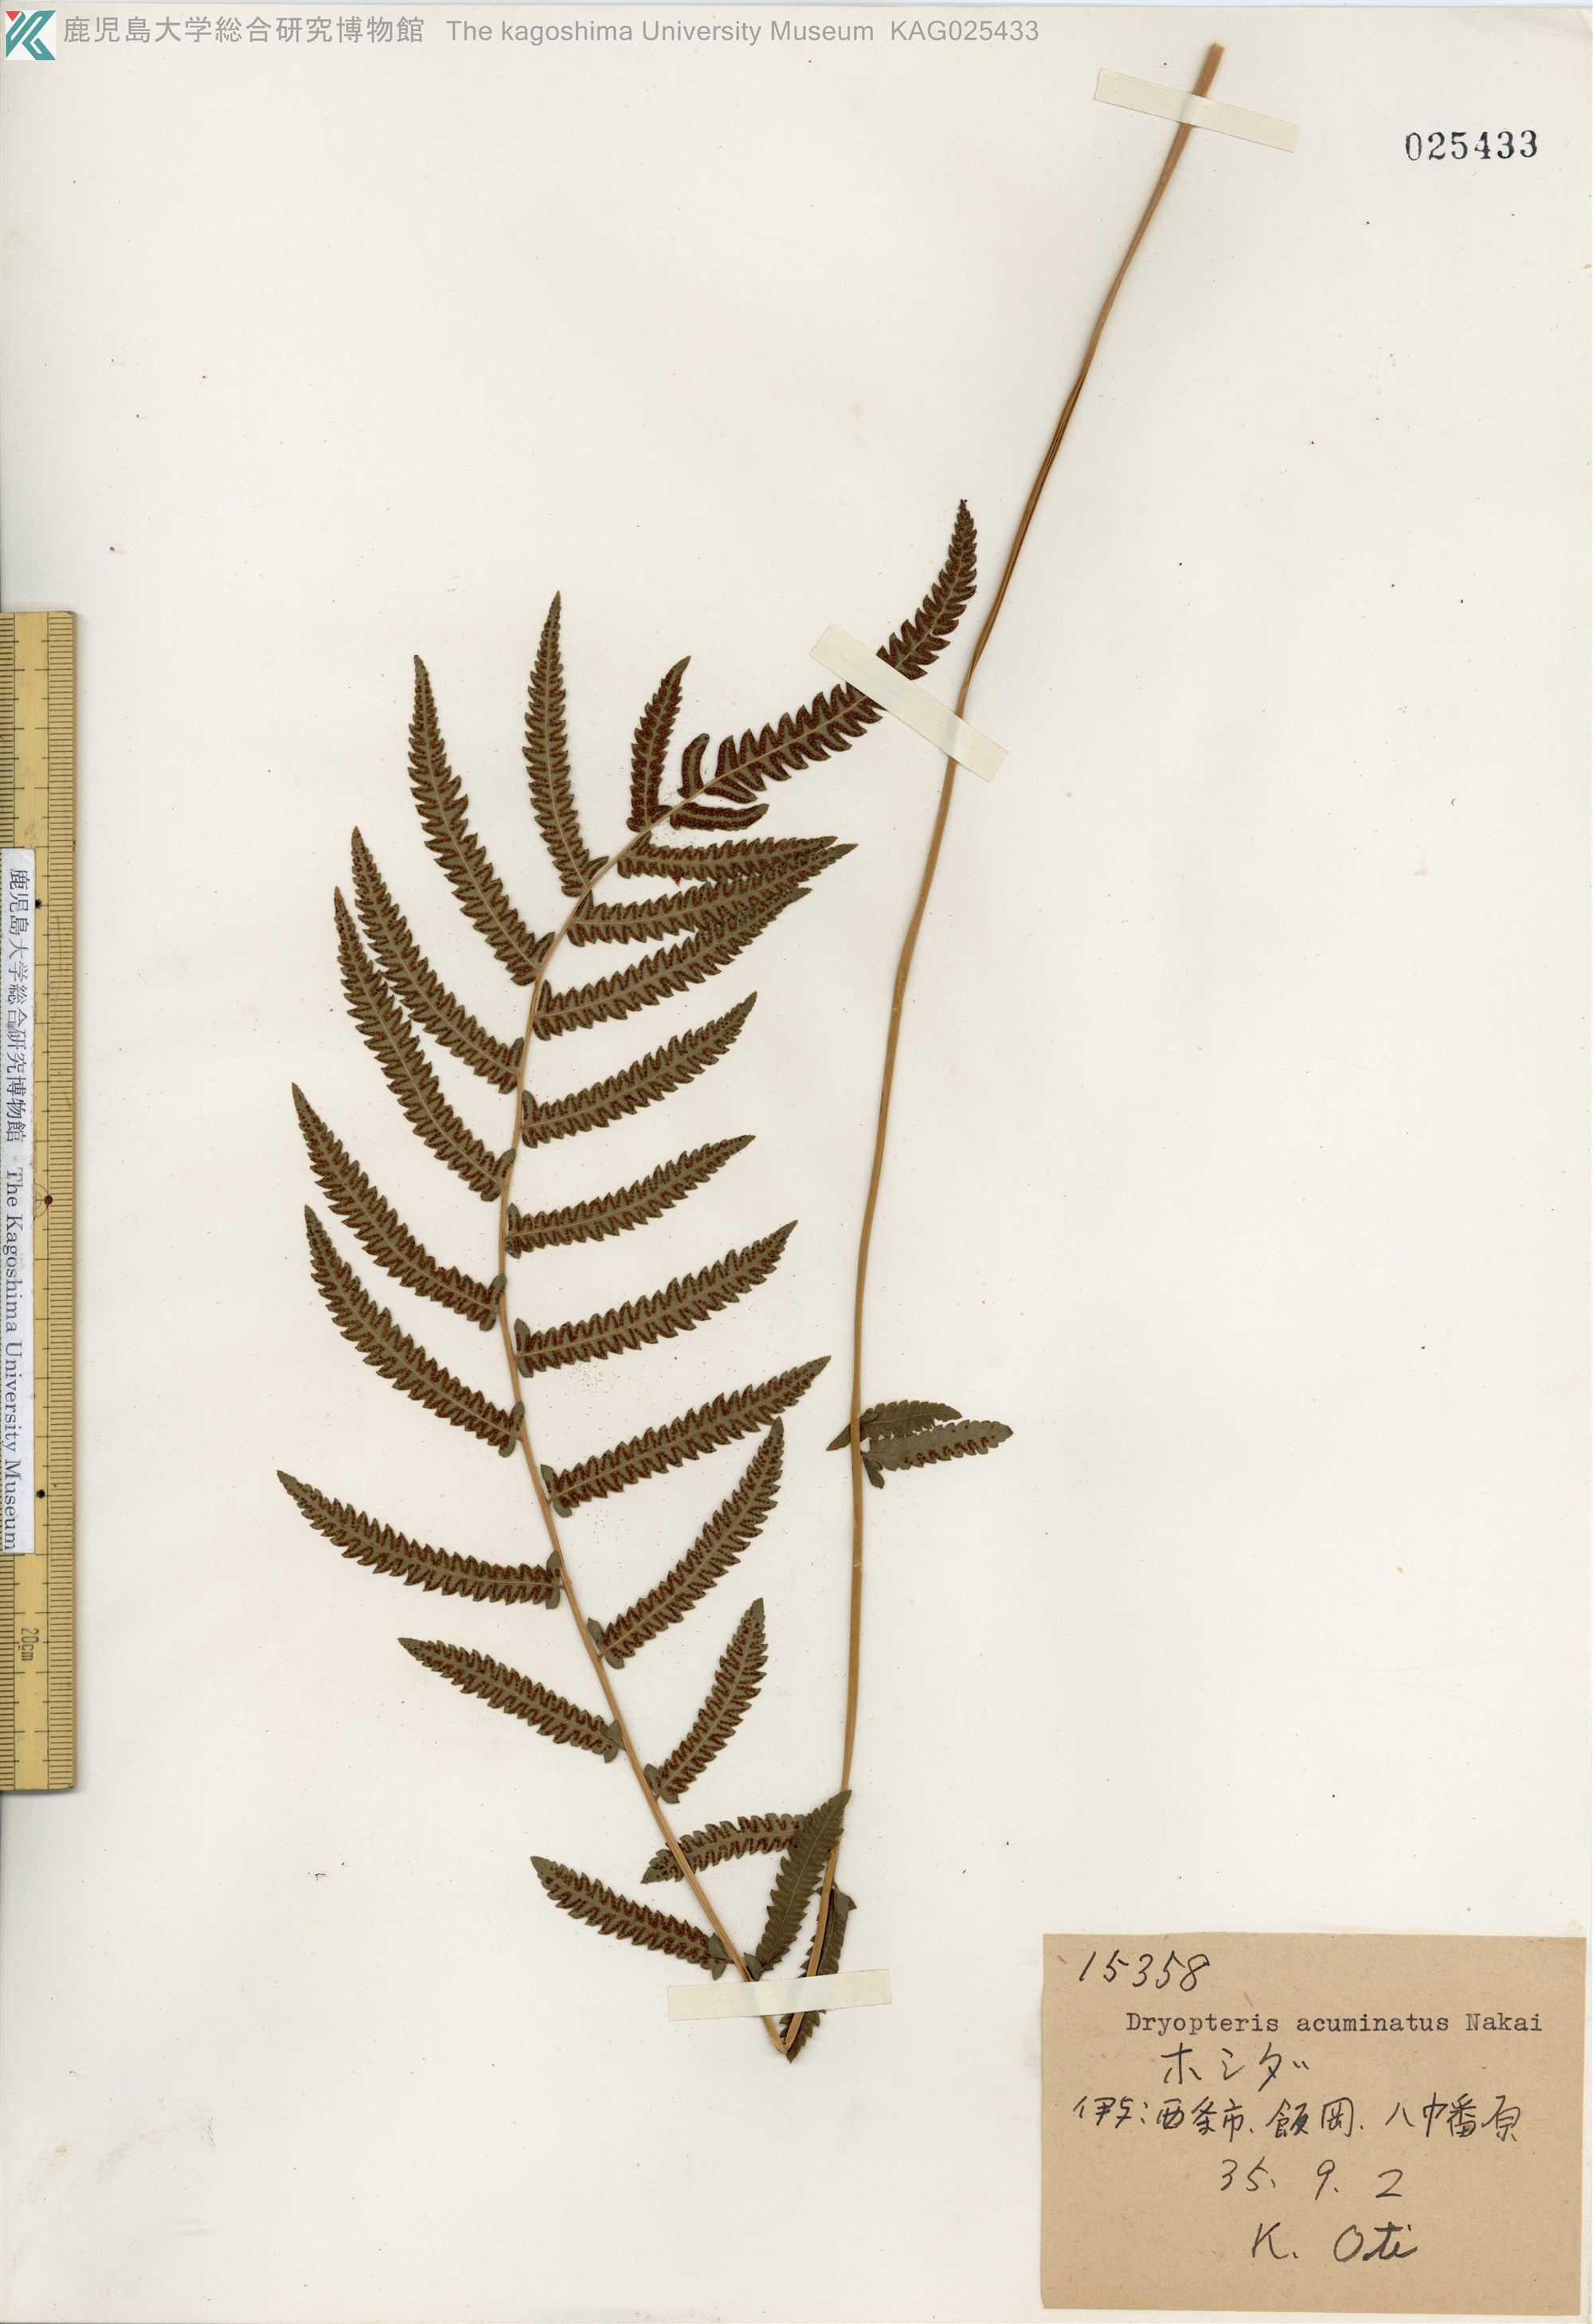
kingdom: Plantae
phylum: Tracheophyta
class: Polypodiopsida
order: Polypodiales
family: Thelypteridaceae
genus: Christella
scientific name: Christella acuminata
